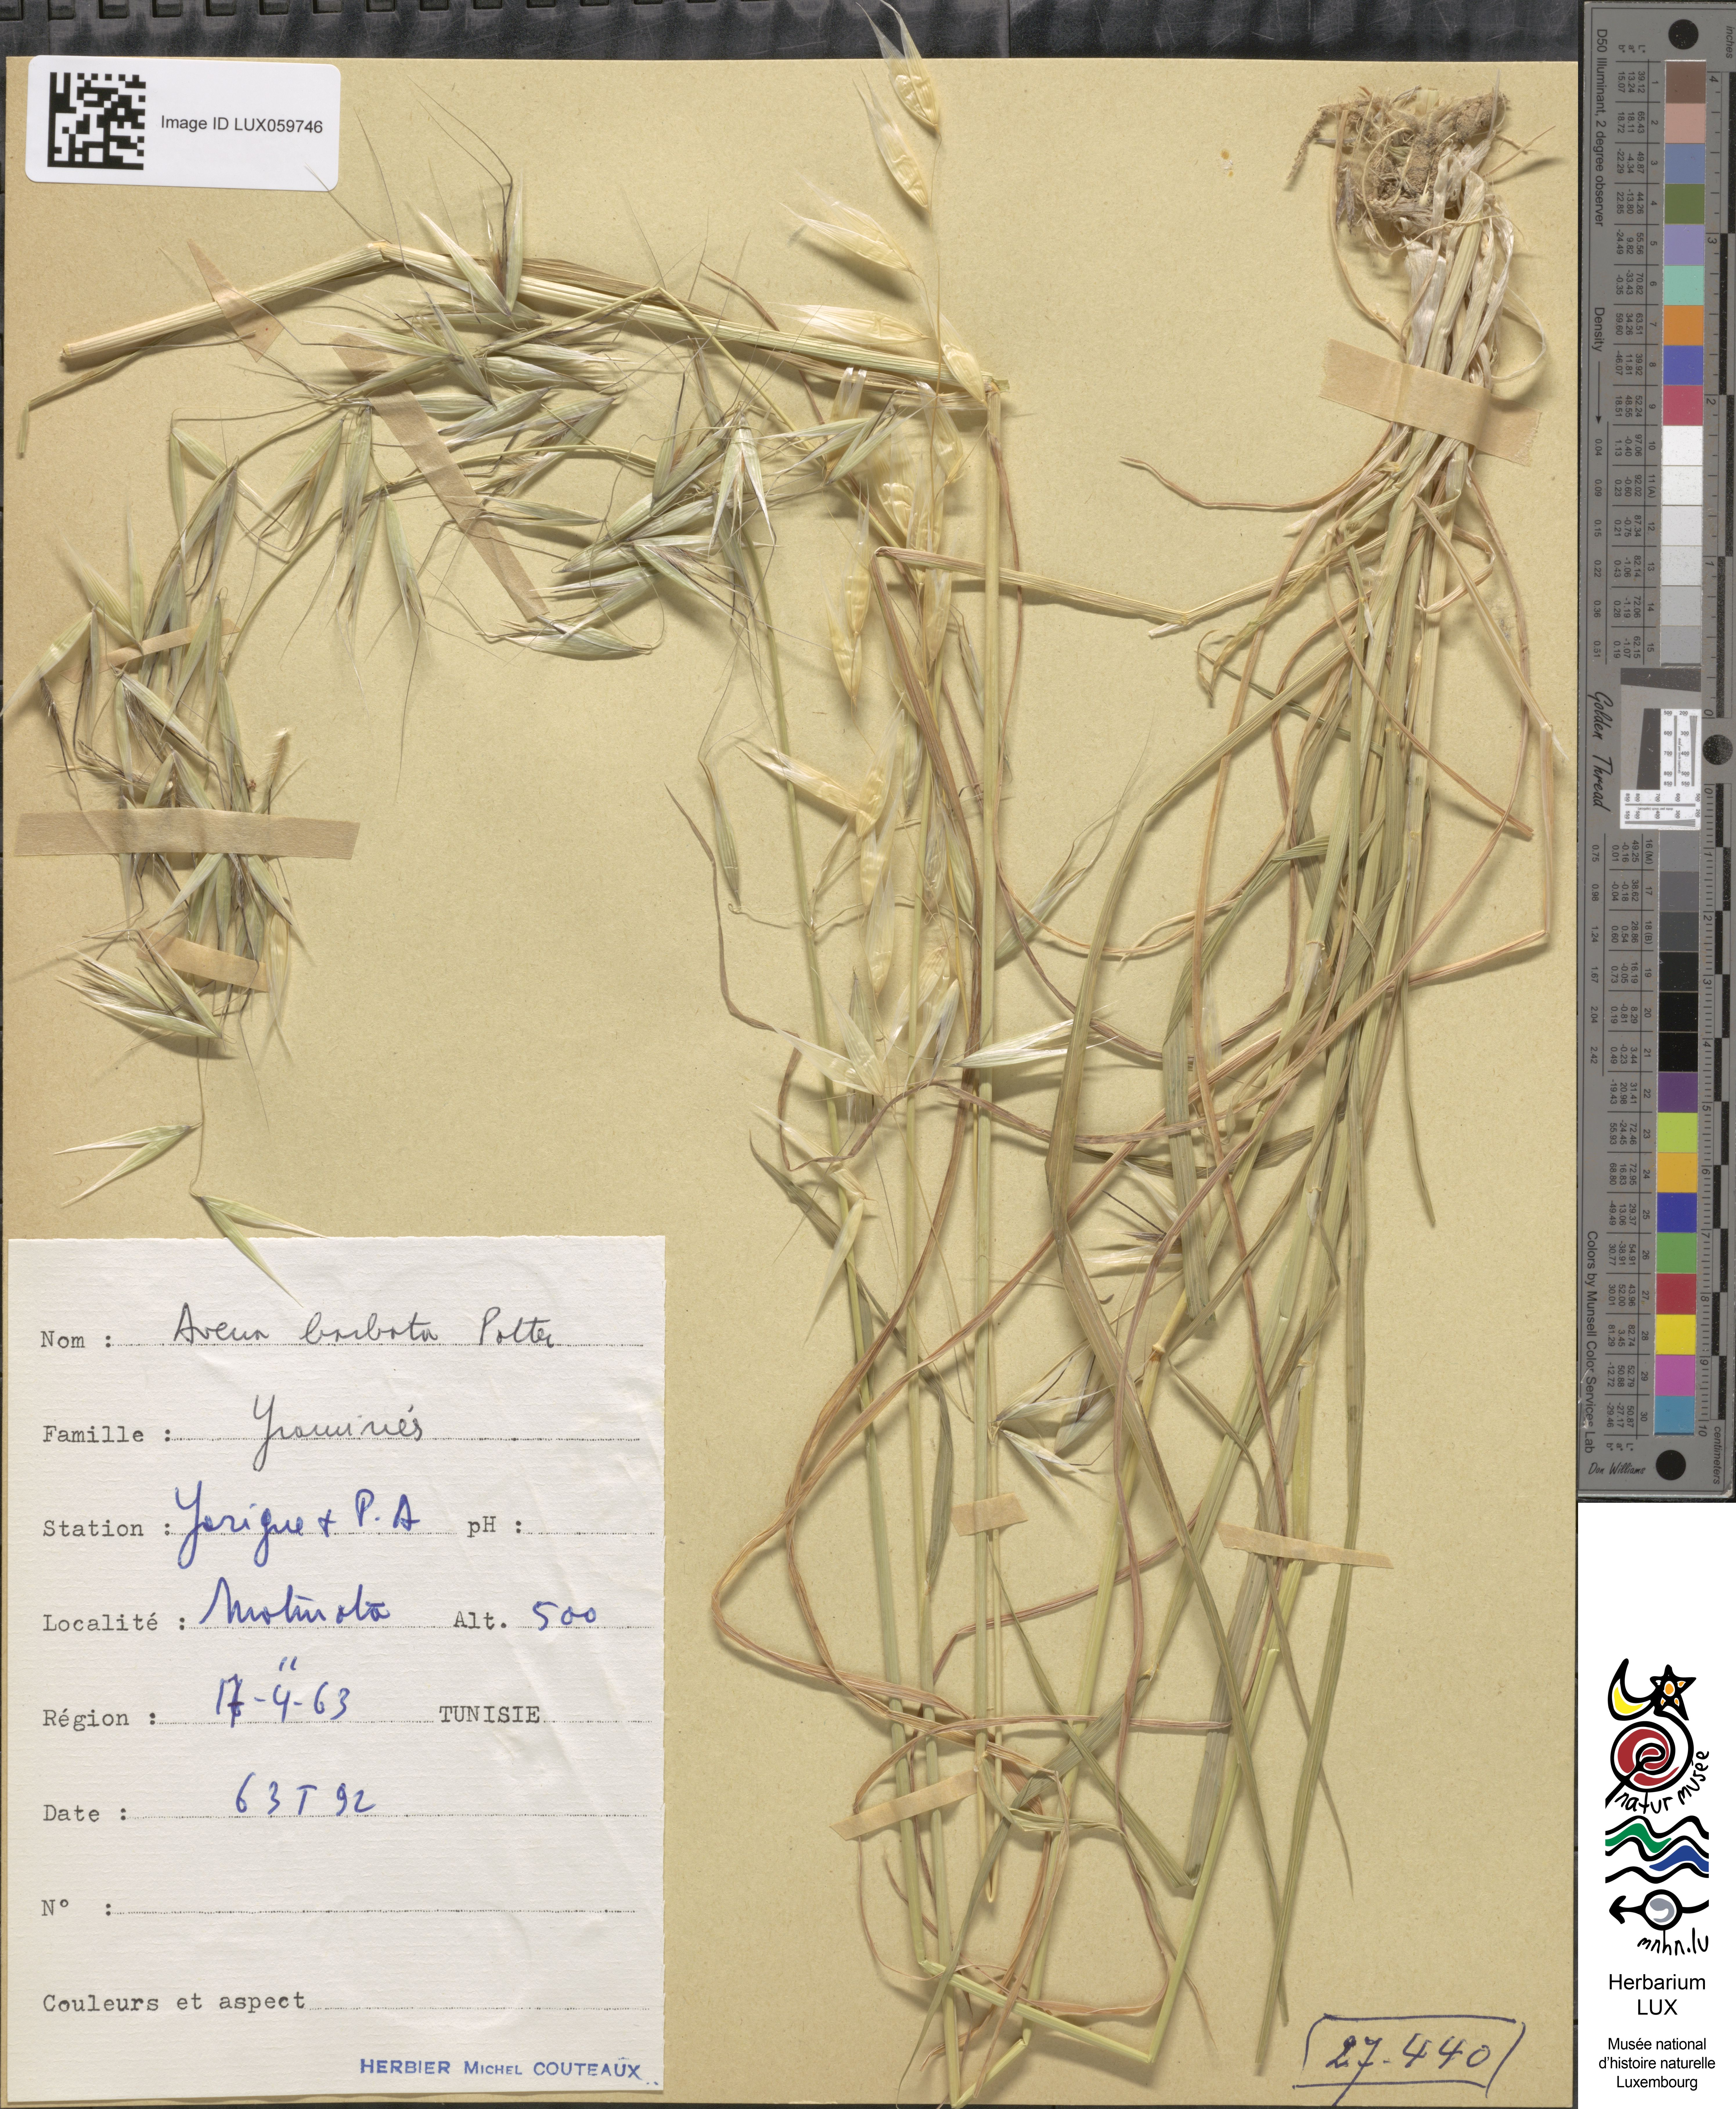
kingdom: Plantae
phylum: Tracheophyta
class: Liliopsida
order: Poales
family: Poaceae
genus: Avena
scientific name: Avena barbata
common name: Slender oat
